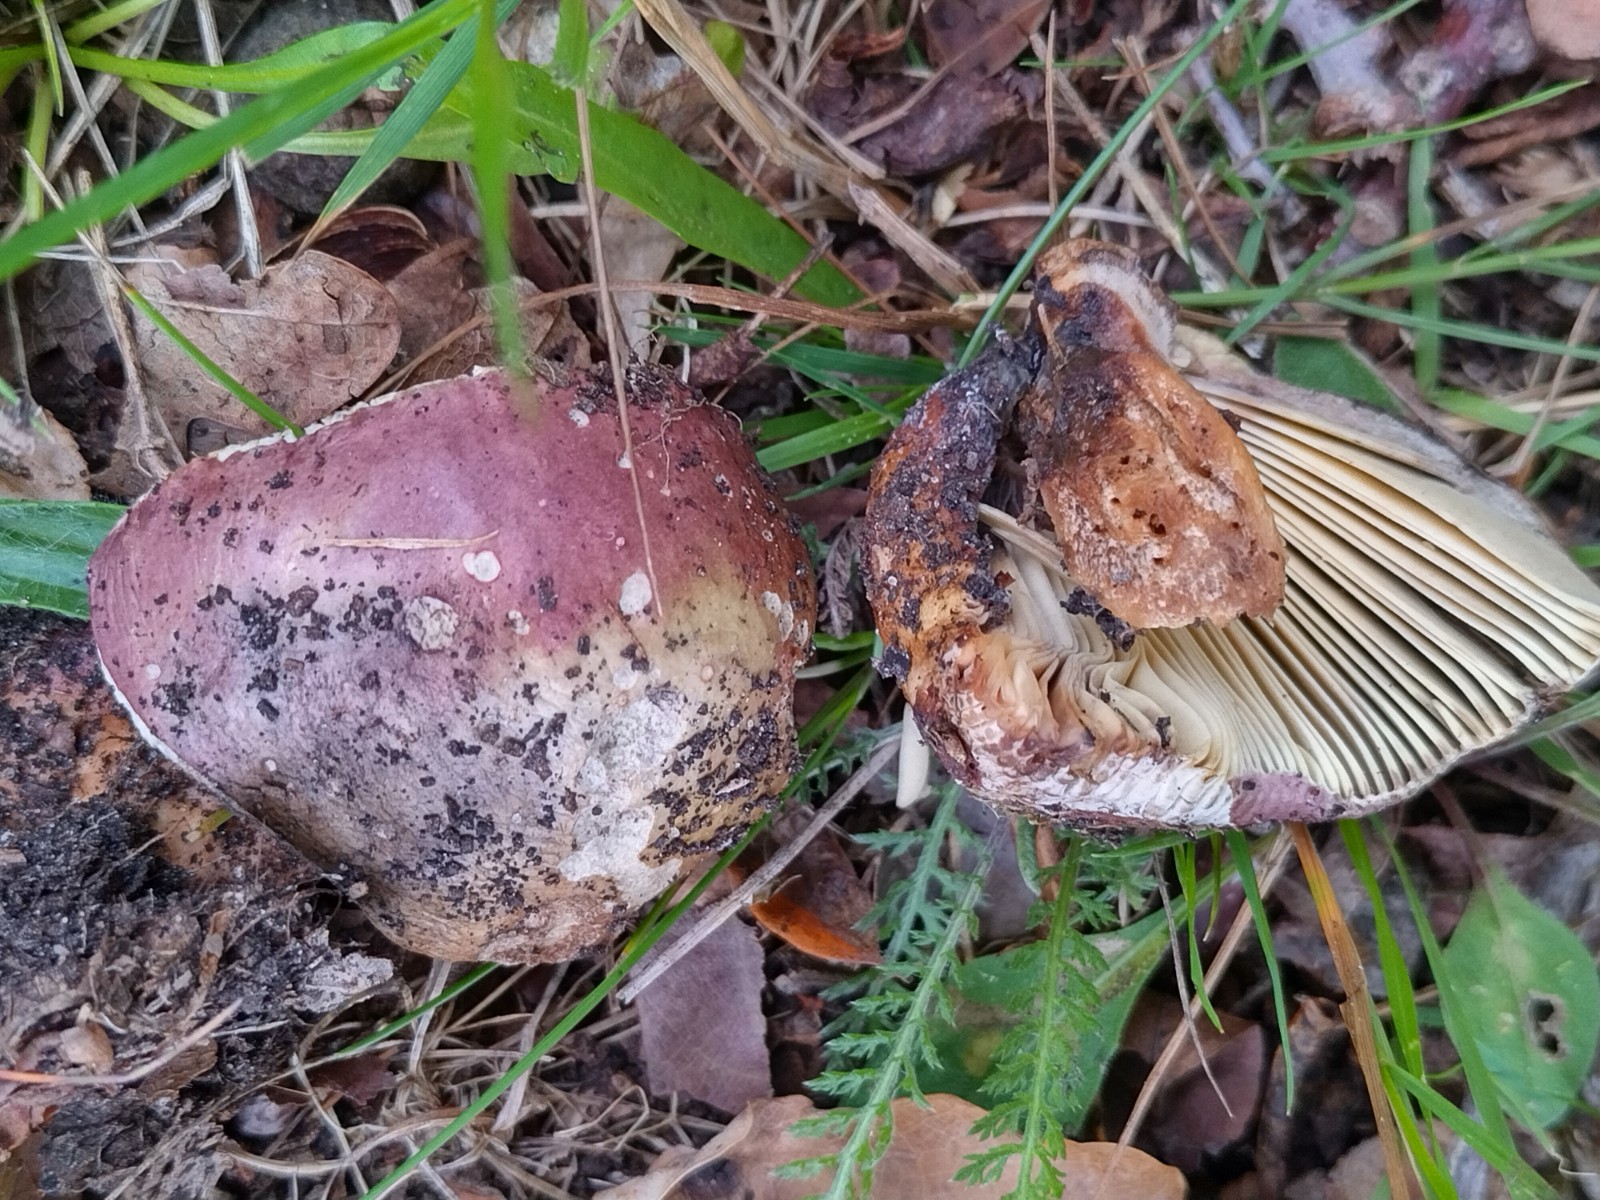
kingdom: Fungi
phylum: Basidiomycota
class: Agaricomycetes
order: Russulales
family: Russulaceae
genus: Russula
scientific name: Russula seperina
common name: rødmende skørhat
